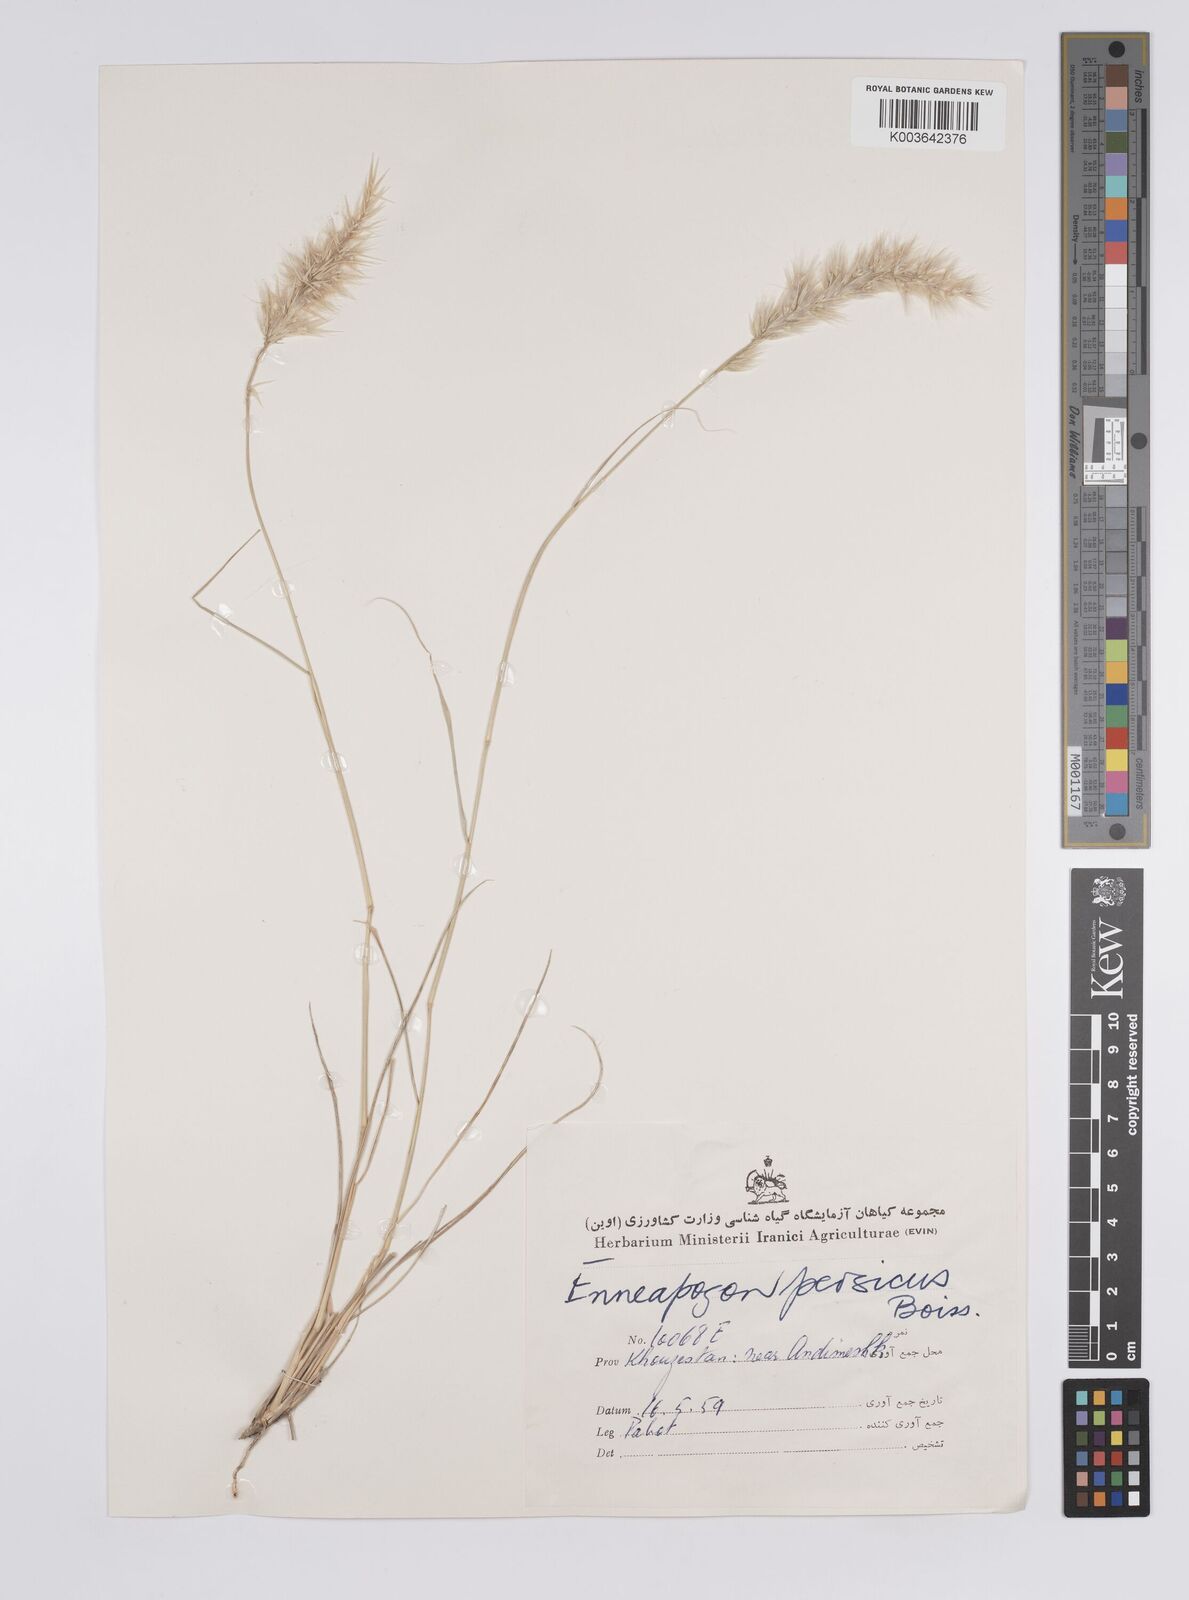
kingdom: Plantae
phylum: Tracheophyta
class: Liliopsida
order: Poales
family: Poaceae
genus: Enneapogon
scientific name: Enneapogon persicus
